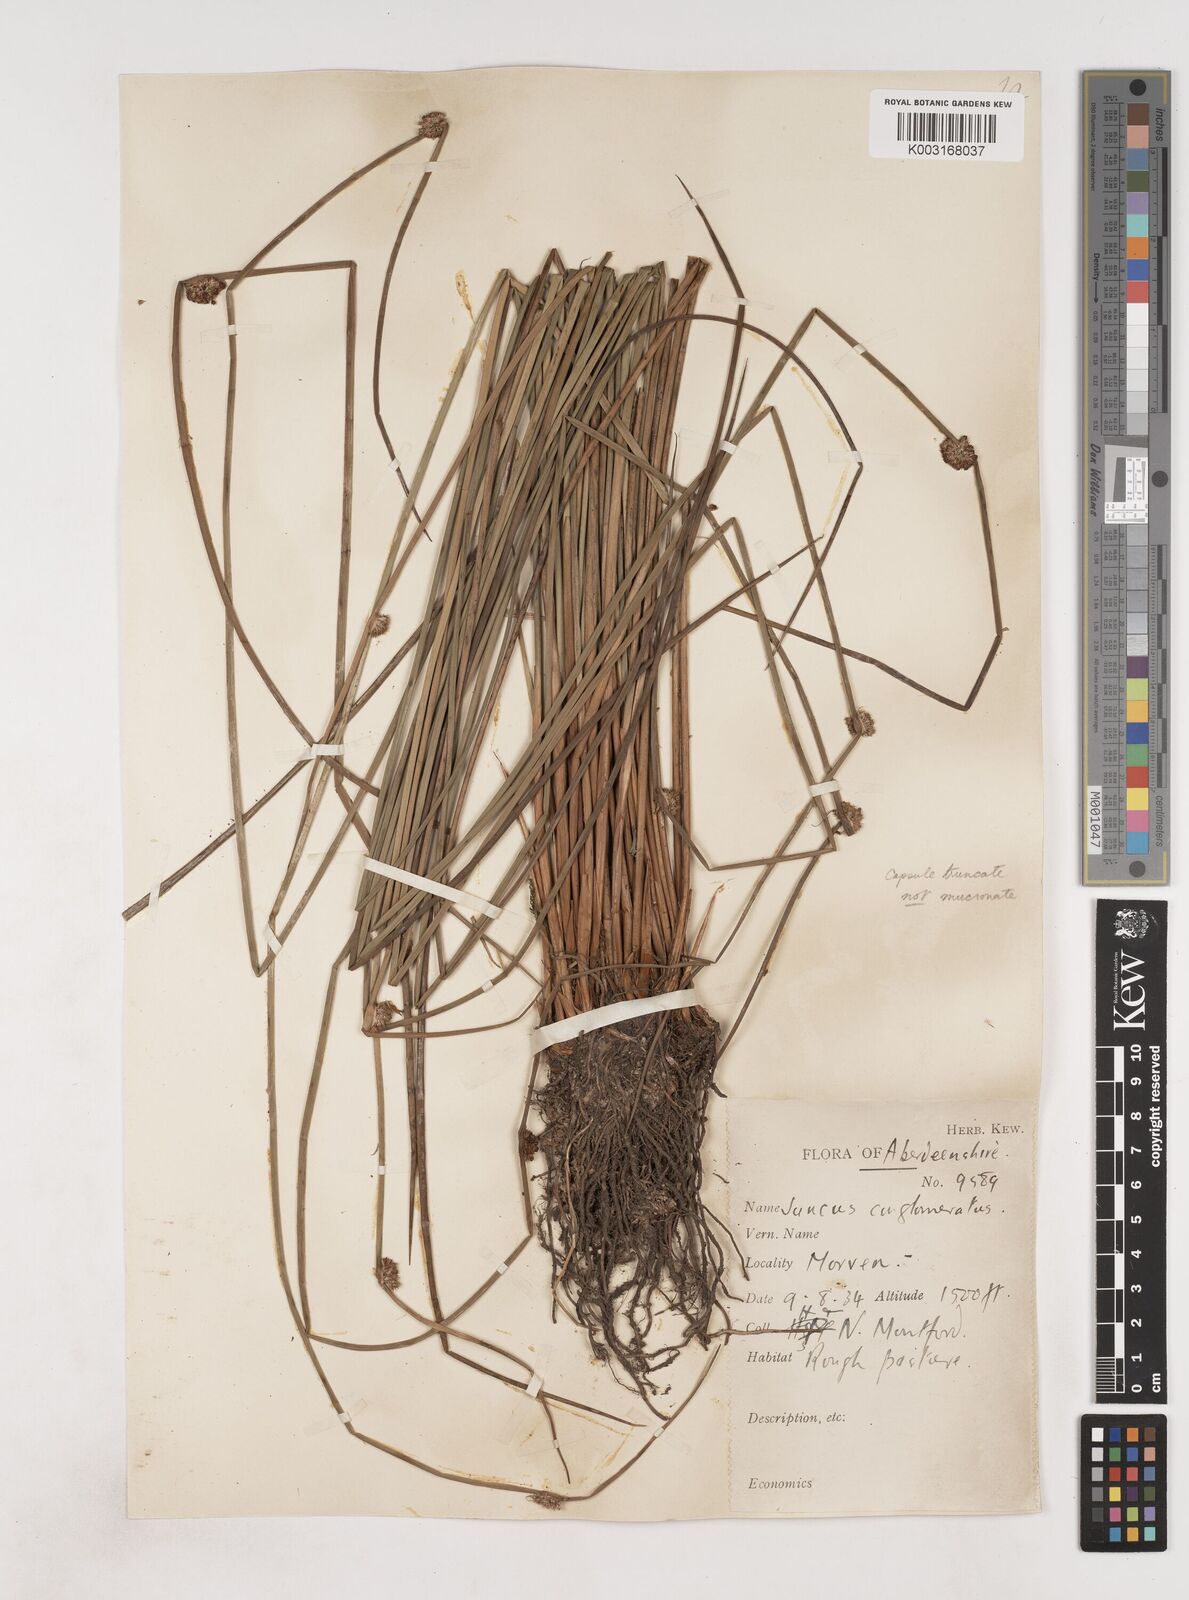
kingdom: Plantae
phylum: Tracheophyta
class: Liliopsida
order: Poales
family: Juncaceae
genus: Juncus
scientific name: Juncus conglomeratus
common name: Compact rush
